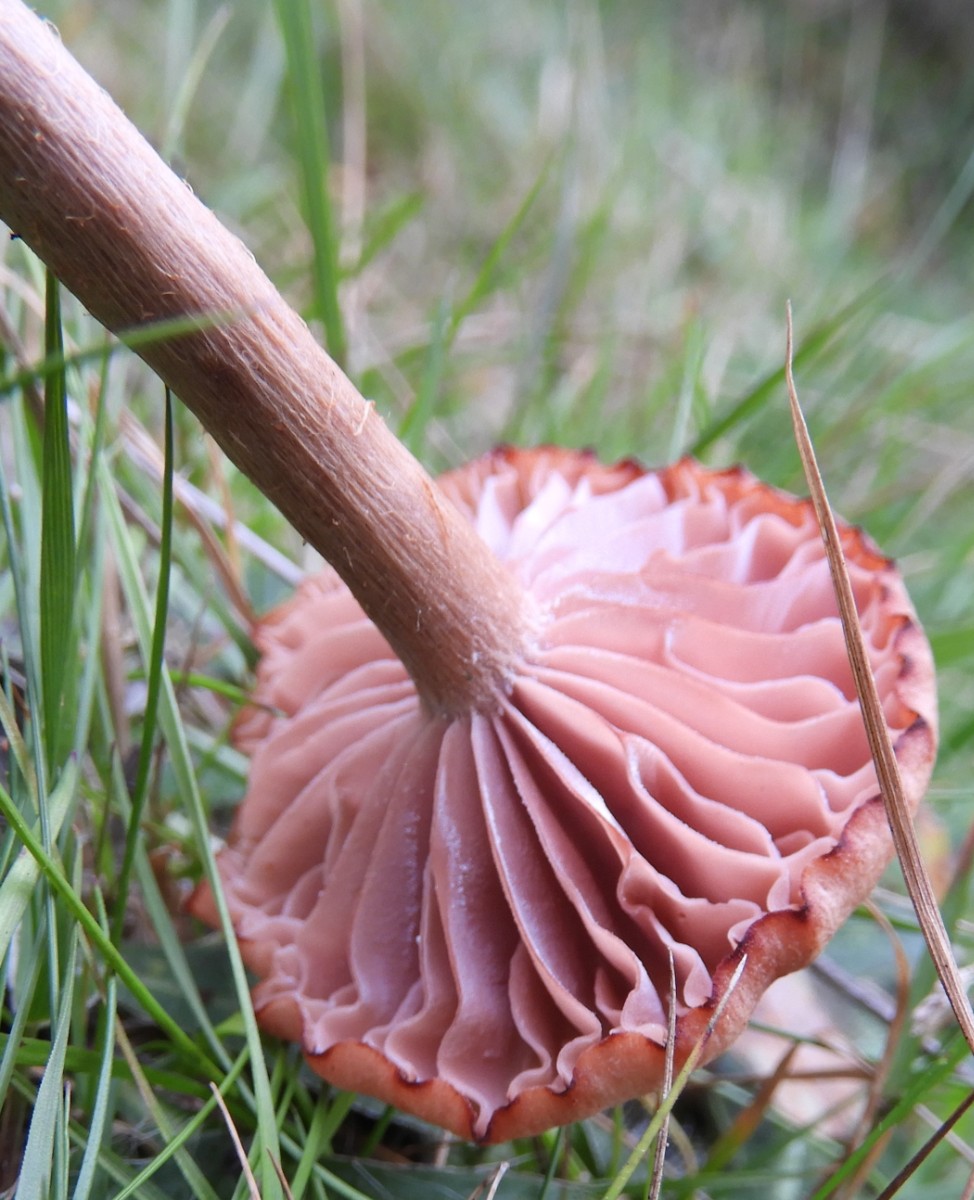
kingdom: Fungi
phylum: Basidiomycota
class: Agaricomycetes
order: Agaricales
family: Hydnangiaceae
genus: Laccaria
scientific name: Laccaria proxima
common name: stor ametysthat
